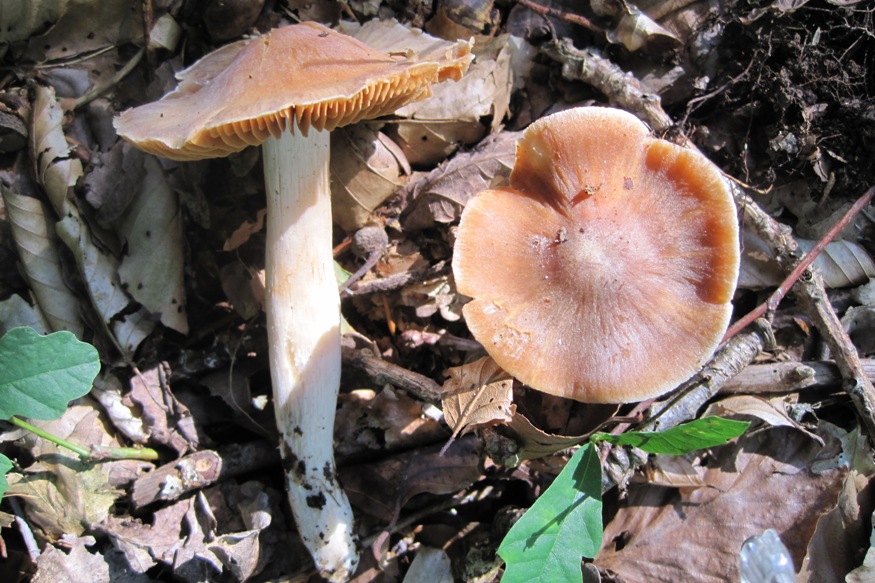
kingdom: Fungi
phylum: Basidiomycota
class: Agaricomycetes
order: Agaricales
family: Cortinariaceae
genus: Cortinarius
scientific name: Cortinarius
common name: jod-slørhat
